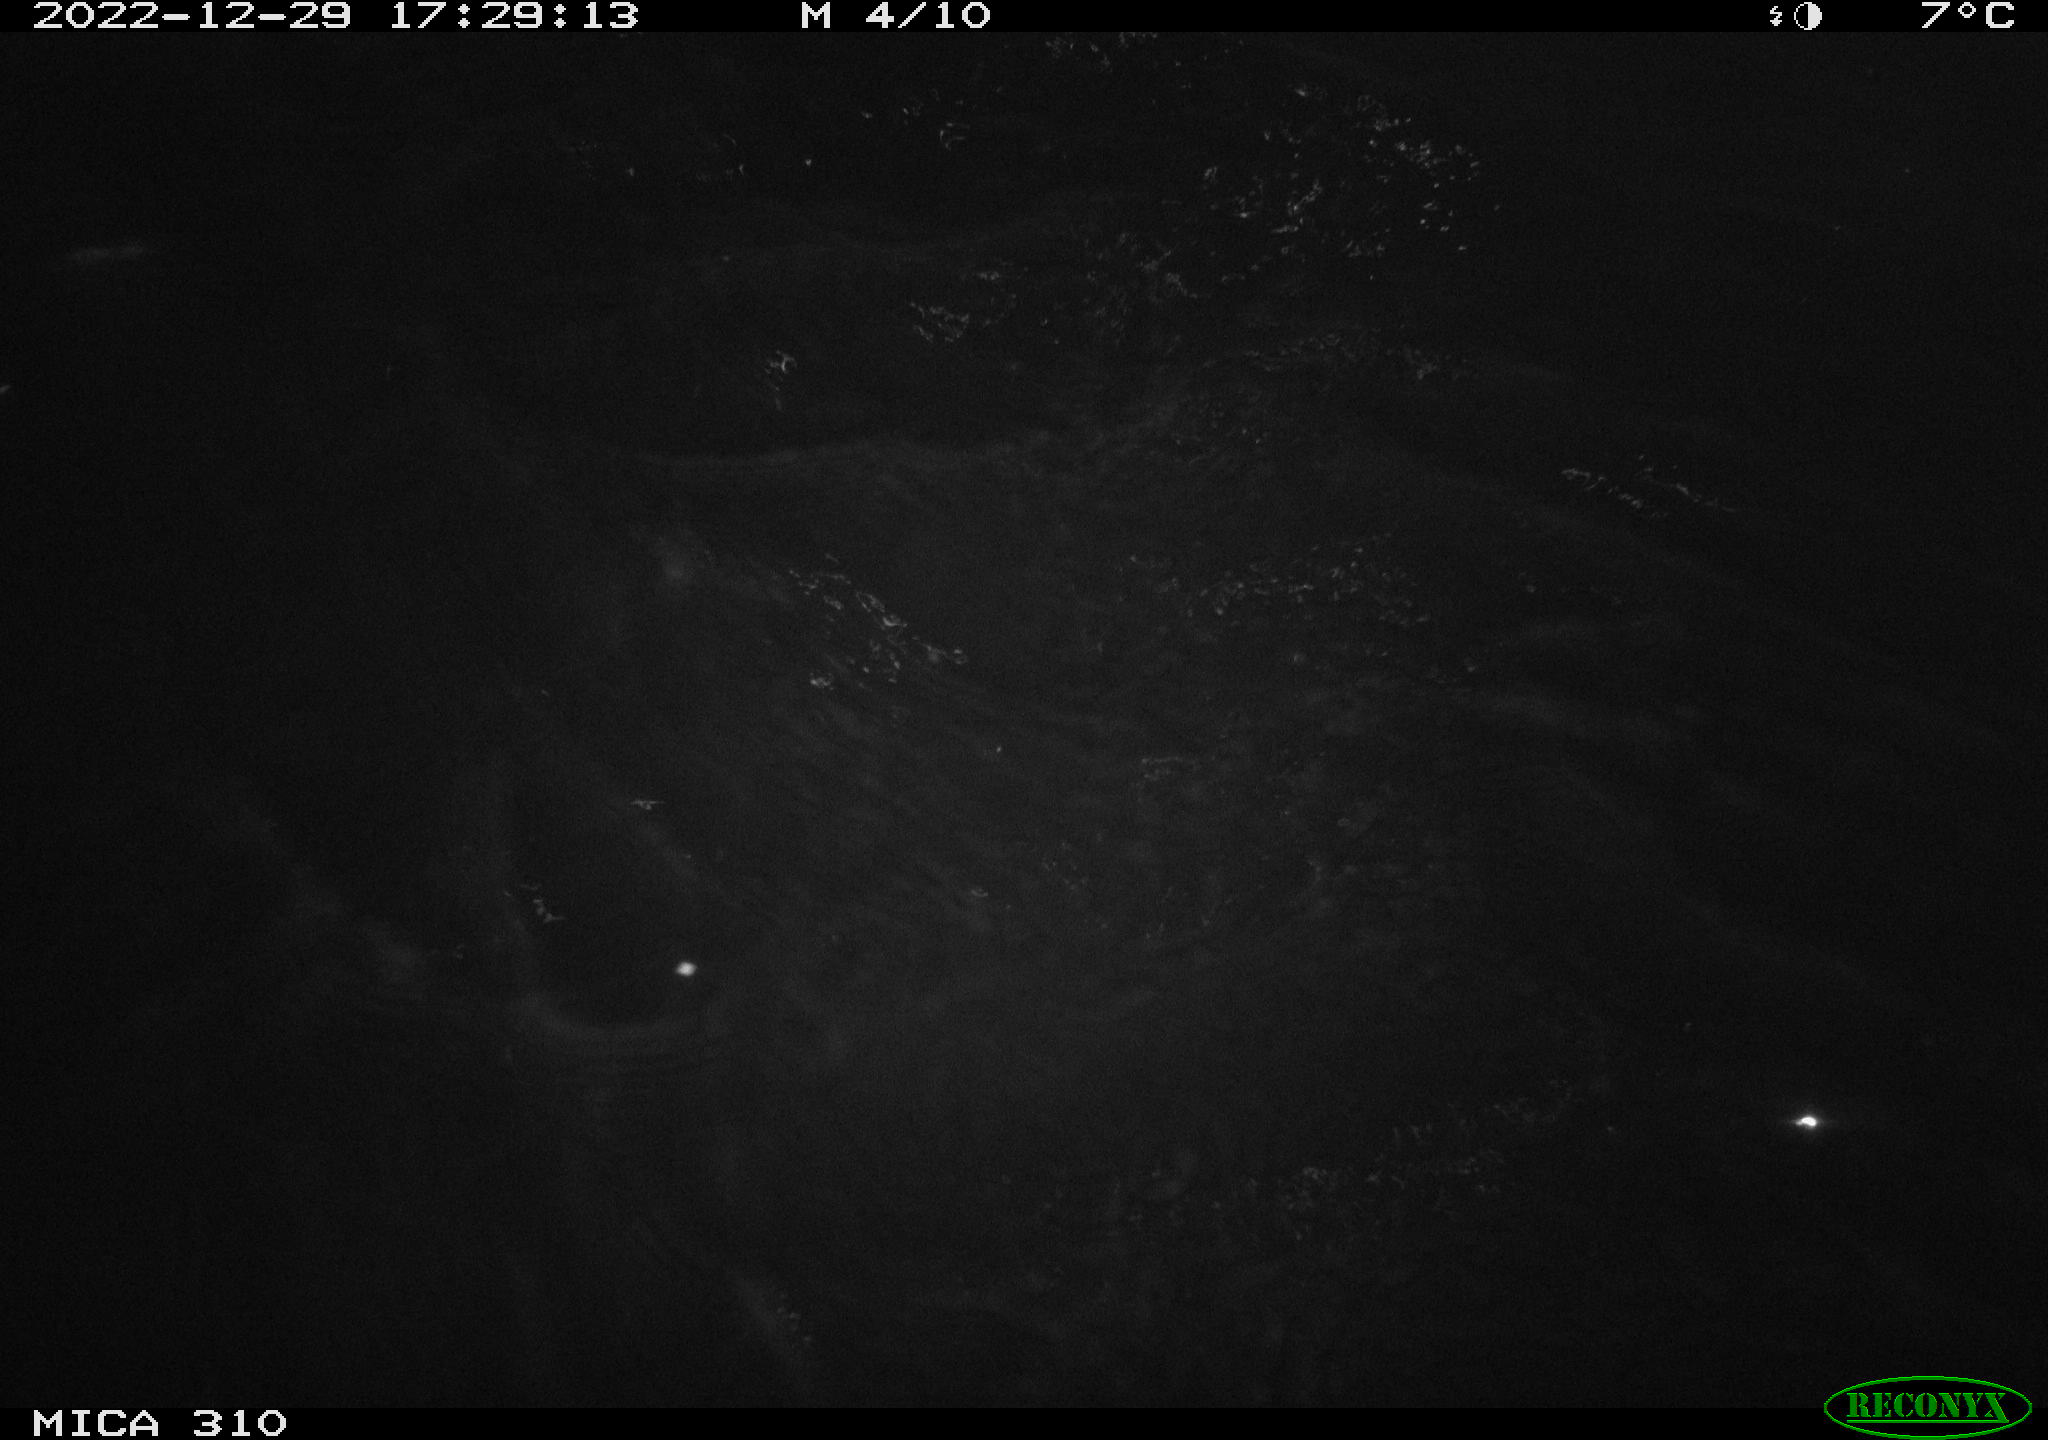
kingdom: Animalia
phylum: Chordata
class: Aves
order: Anseriformes
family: Anatidae
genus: Anas
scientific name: Anas
